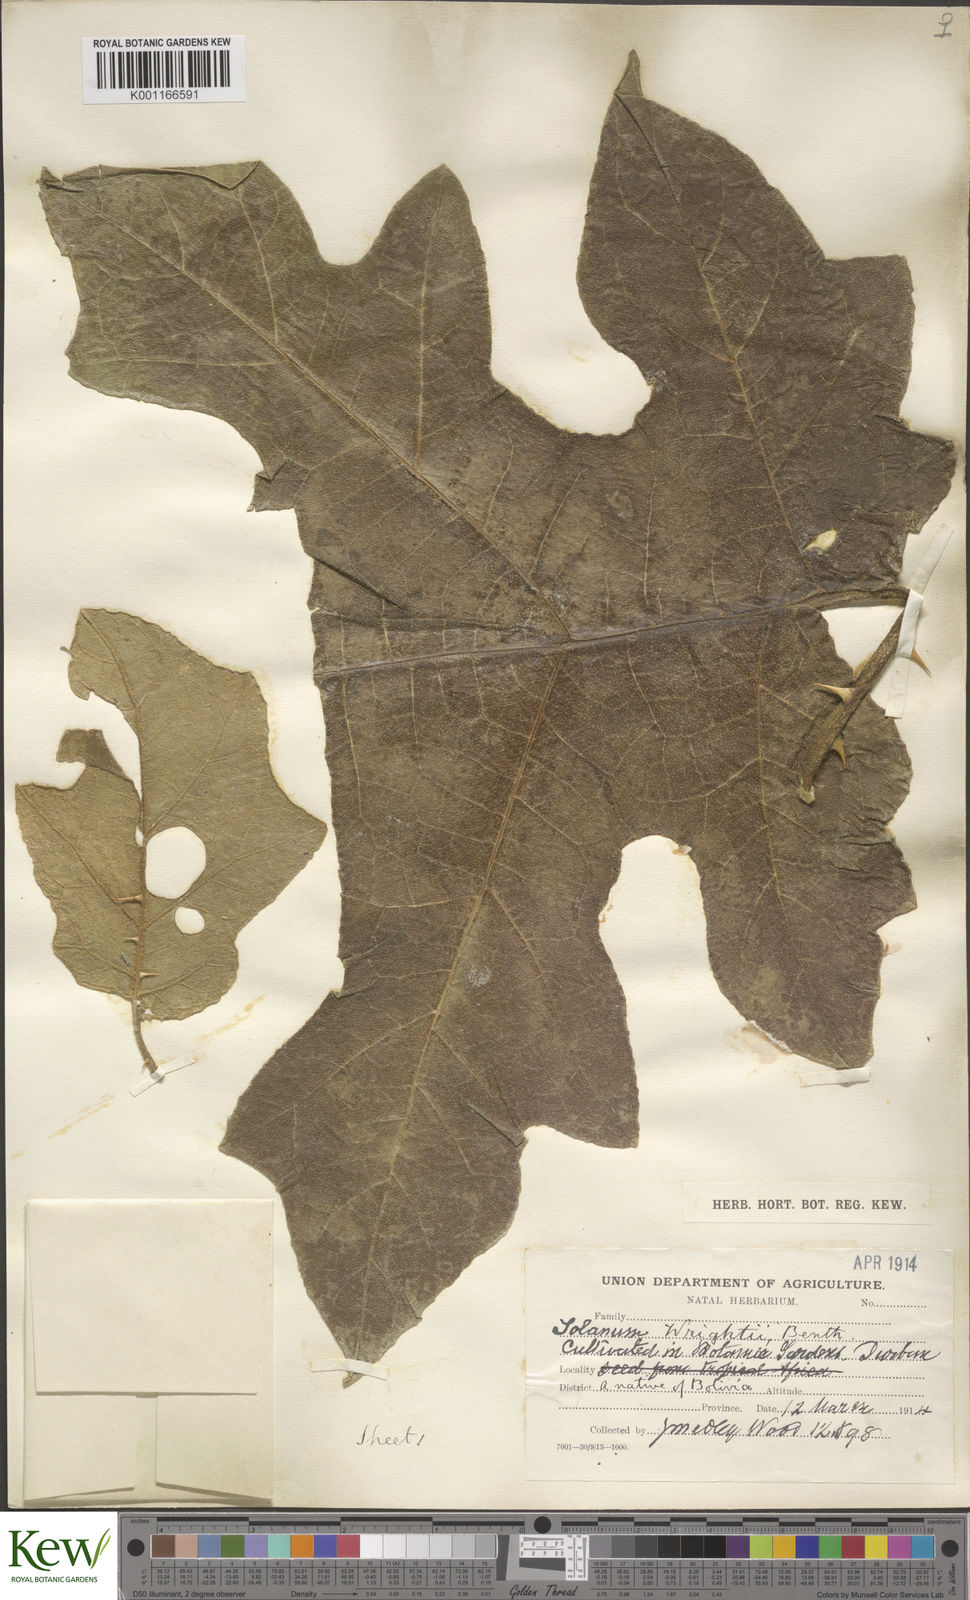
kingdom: Plantae
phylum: Tracheophyta
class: Magnoliopsida
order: Solanales
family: Solanaceae
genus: Solanum
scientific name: Solanum wrightii
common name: Brazilian potato-tree
